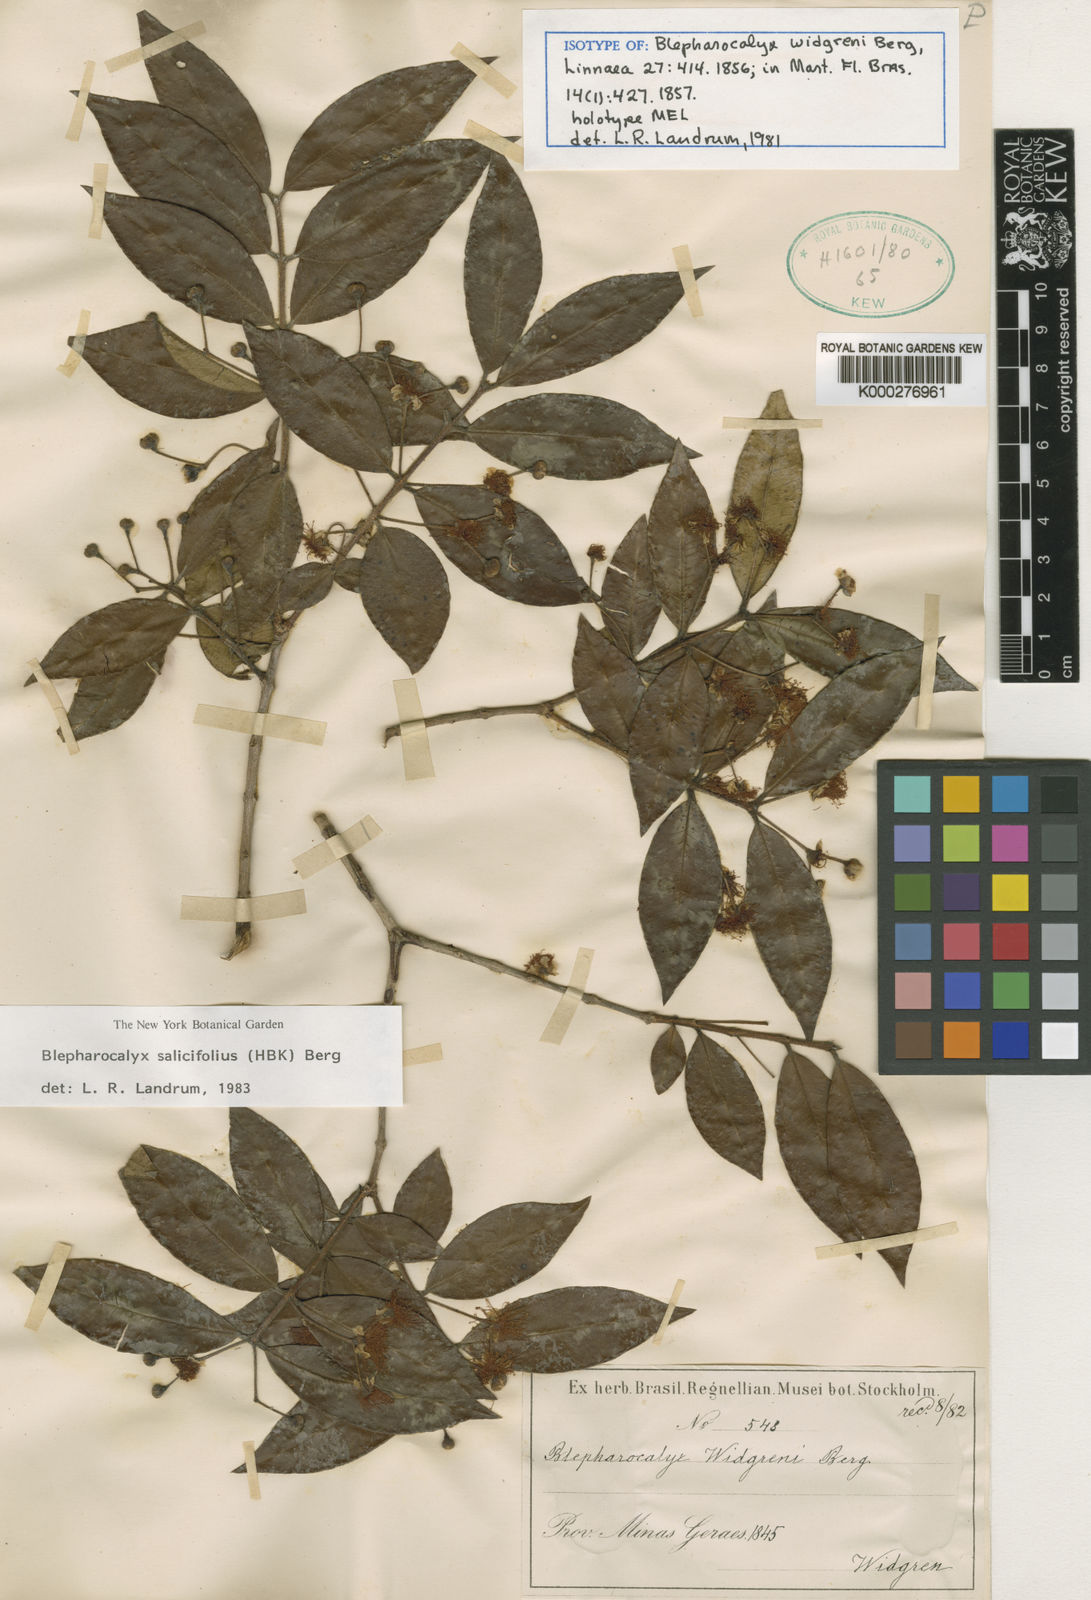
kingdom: Plantae
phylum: Tracheophyta
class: Magnoliopsida
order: Myrtales
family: Myrtaceae
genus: Blepharocalyx
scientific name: Blepharocalyx salicifolius
